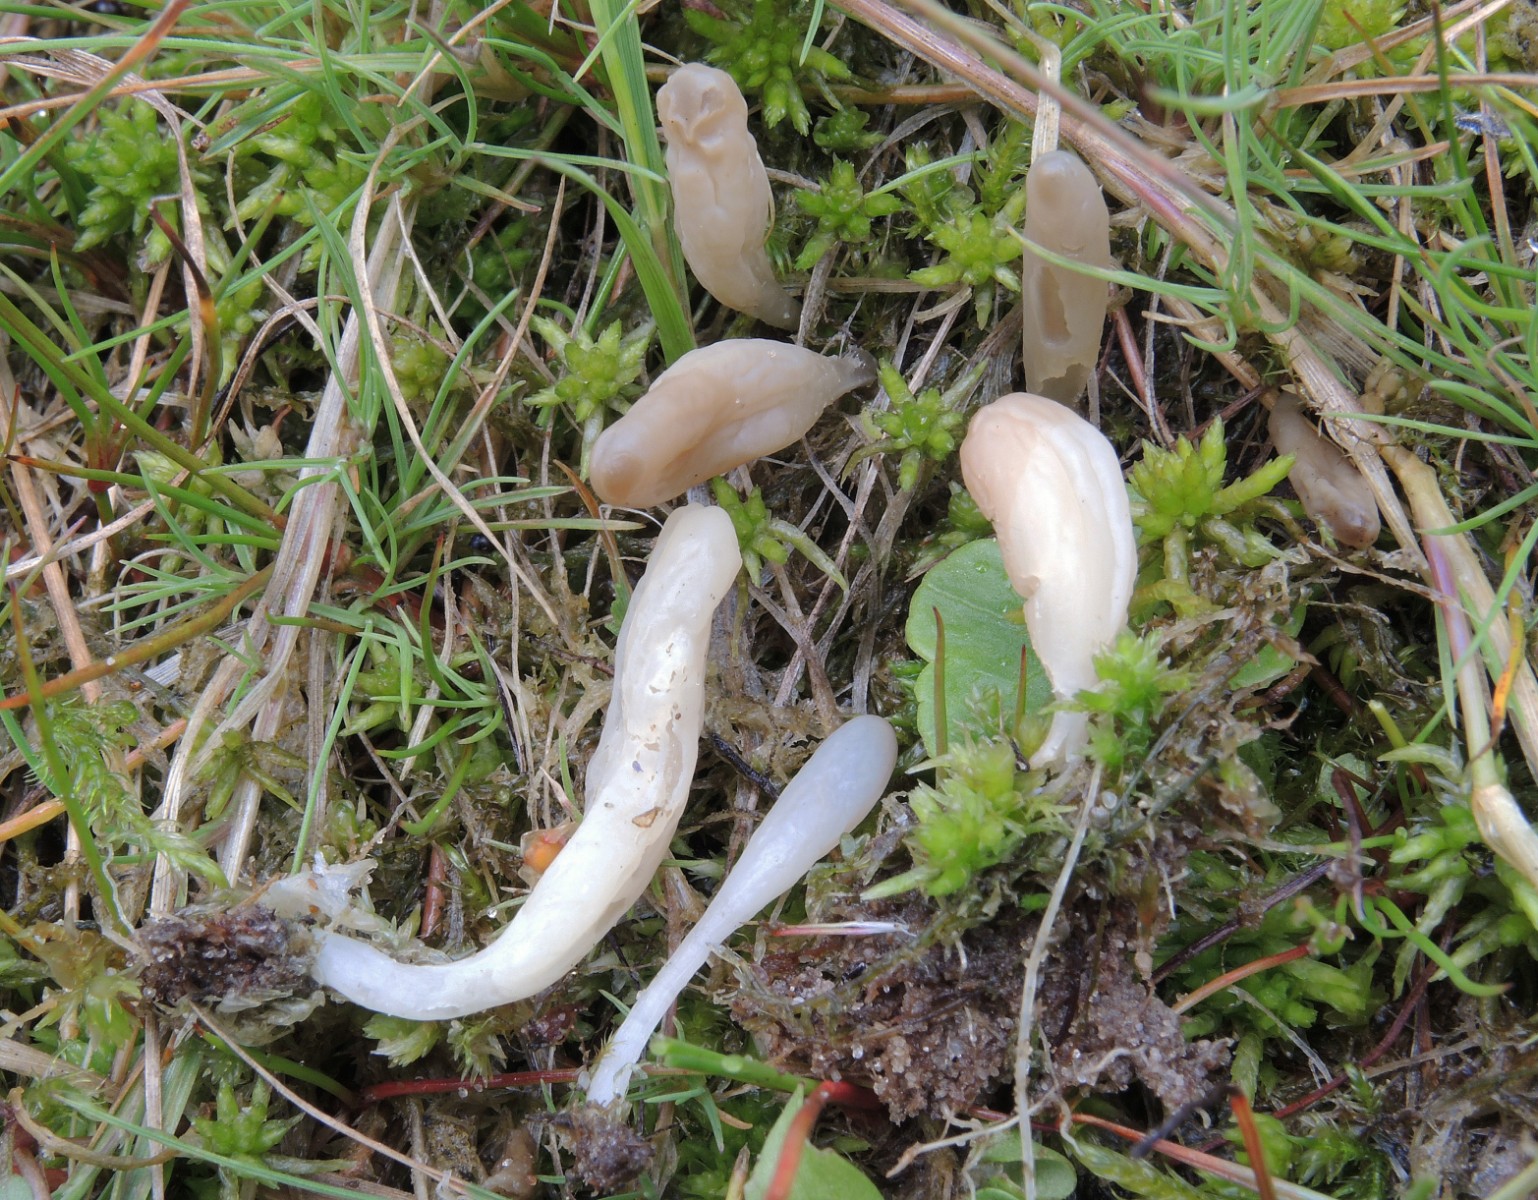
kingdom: Fungi
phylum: Basidiomycota
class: Agaricomycetes
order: Agaricales
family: Clavariaceae
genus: Clavaria
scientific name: Clavaria
